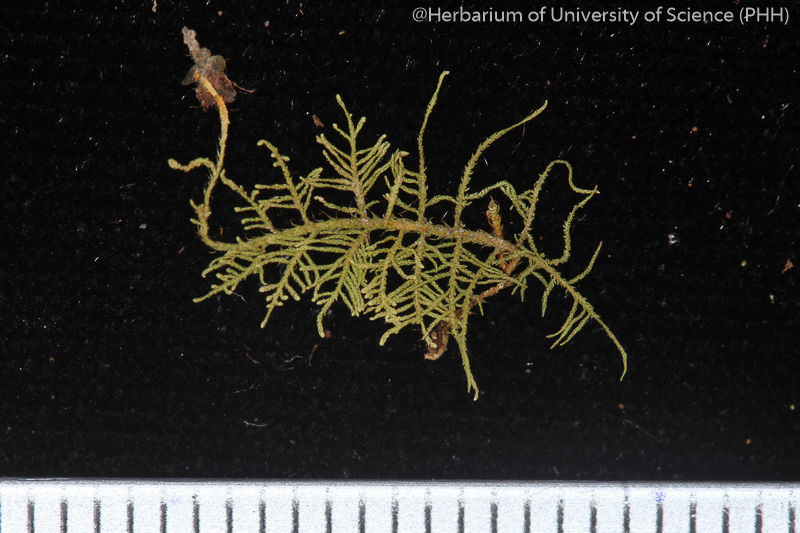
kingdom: Plantae
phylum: Bryophyta
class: Bryopsida
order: Hypnales
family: Thuidiaceae
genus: Thuidium
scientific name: Thuidium cymbifolium
